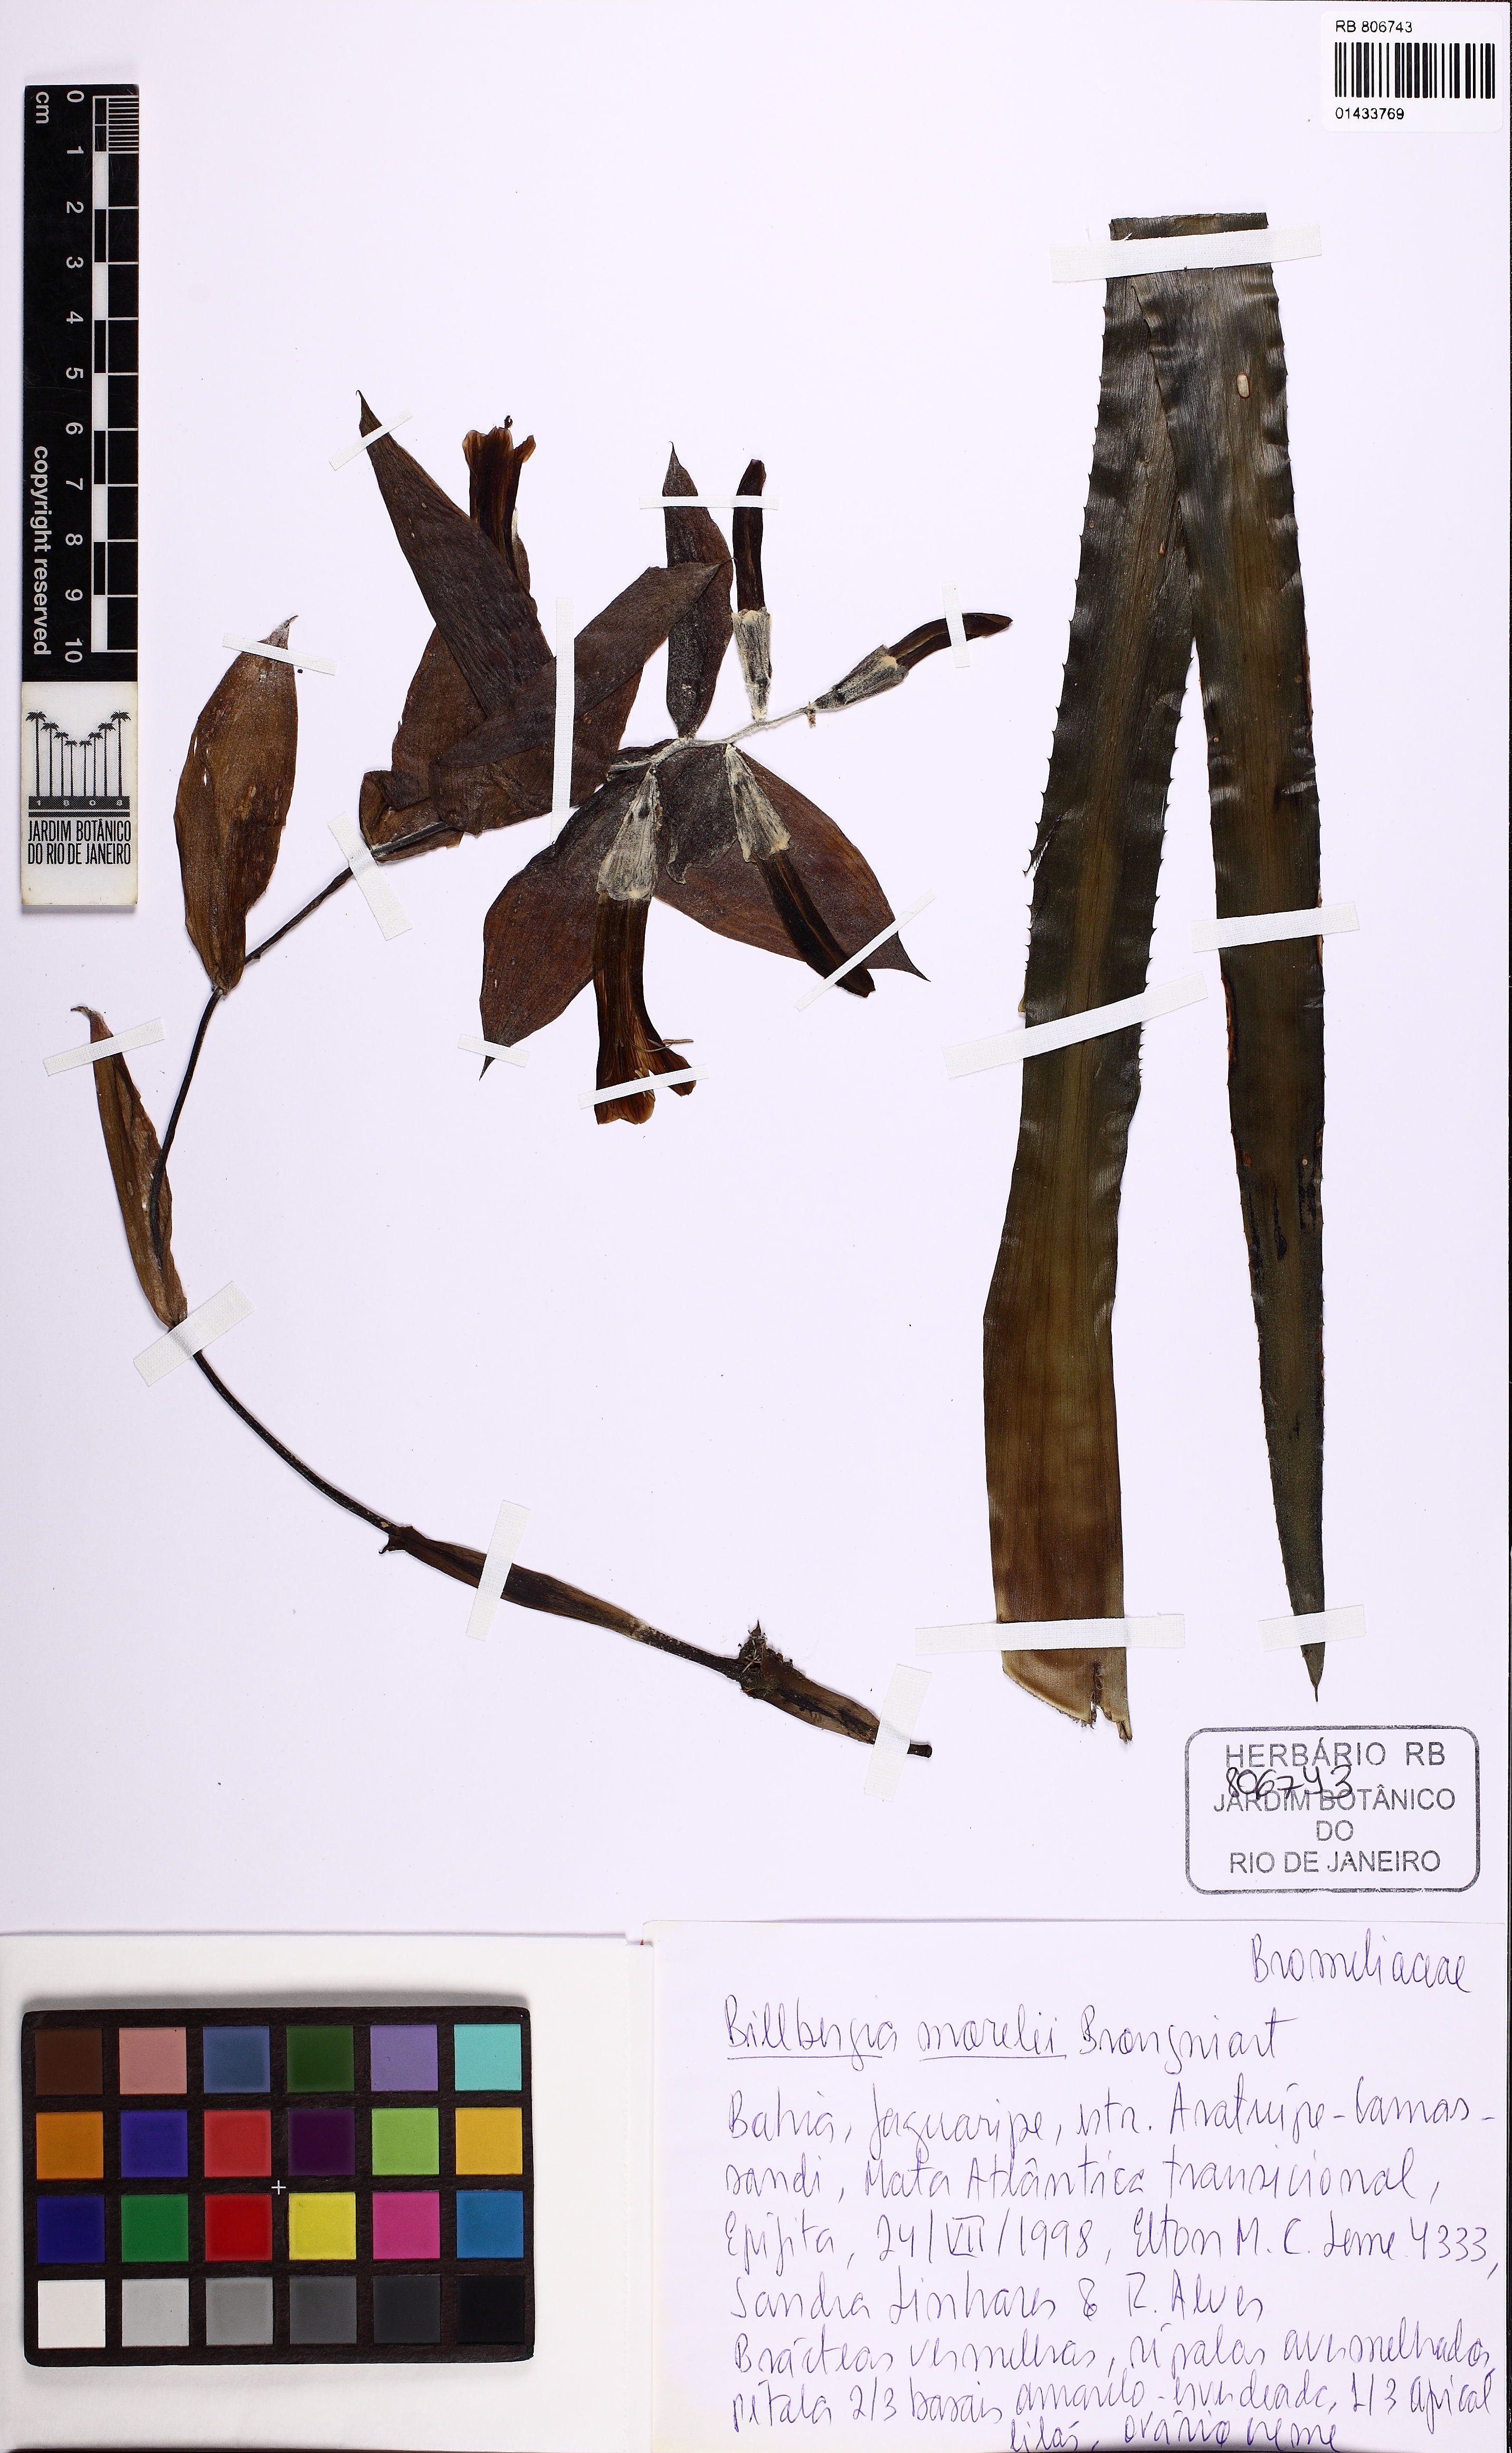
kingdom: Plantae
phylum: Tracheophyta
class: Liliopsida
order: Poales
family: Bromeliaceae
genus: Billbergia
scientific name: Billbergia morelii
